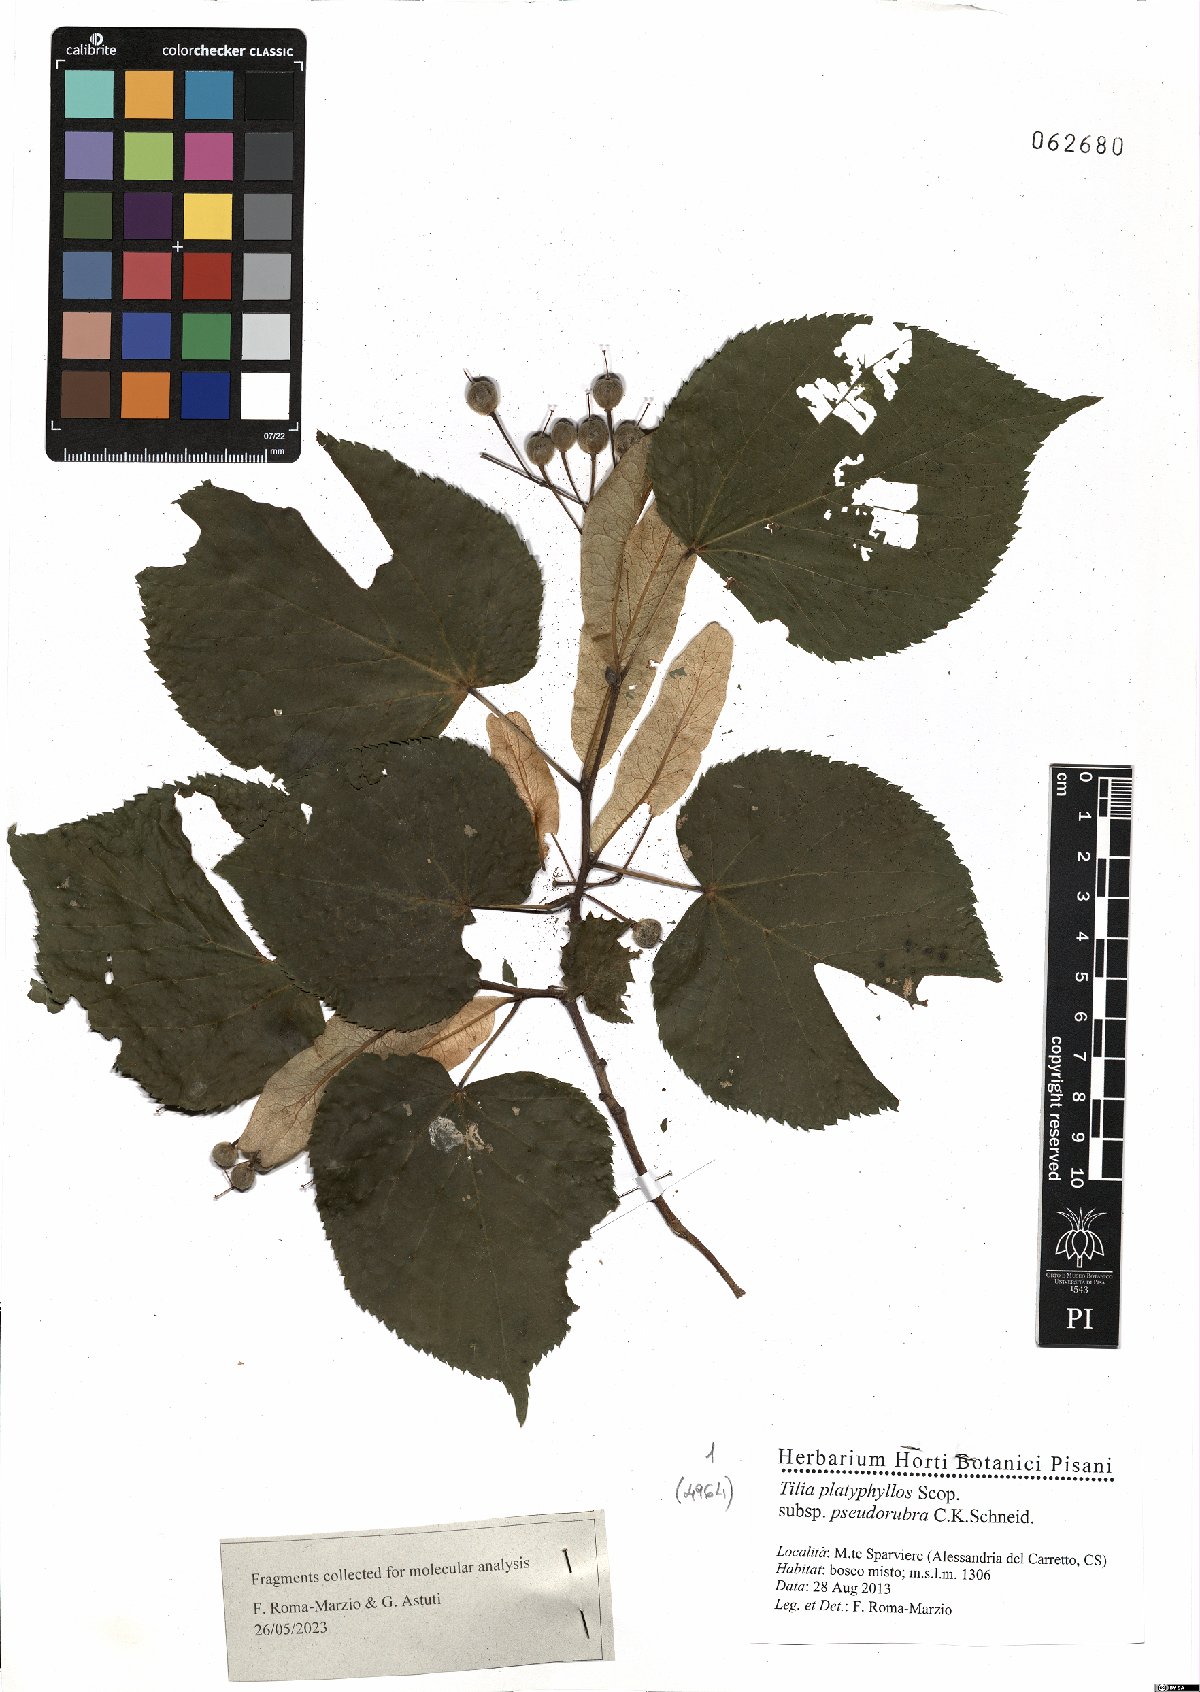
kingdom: Plantae
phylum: Tracheophyta
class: Magnoliopsida
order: Malvales
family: Malvaceae
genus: Tilia
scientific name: Tilia platyphyllos
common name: Large-leaved lime
